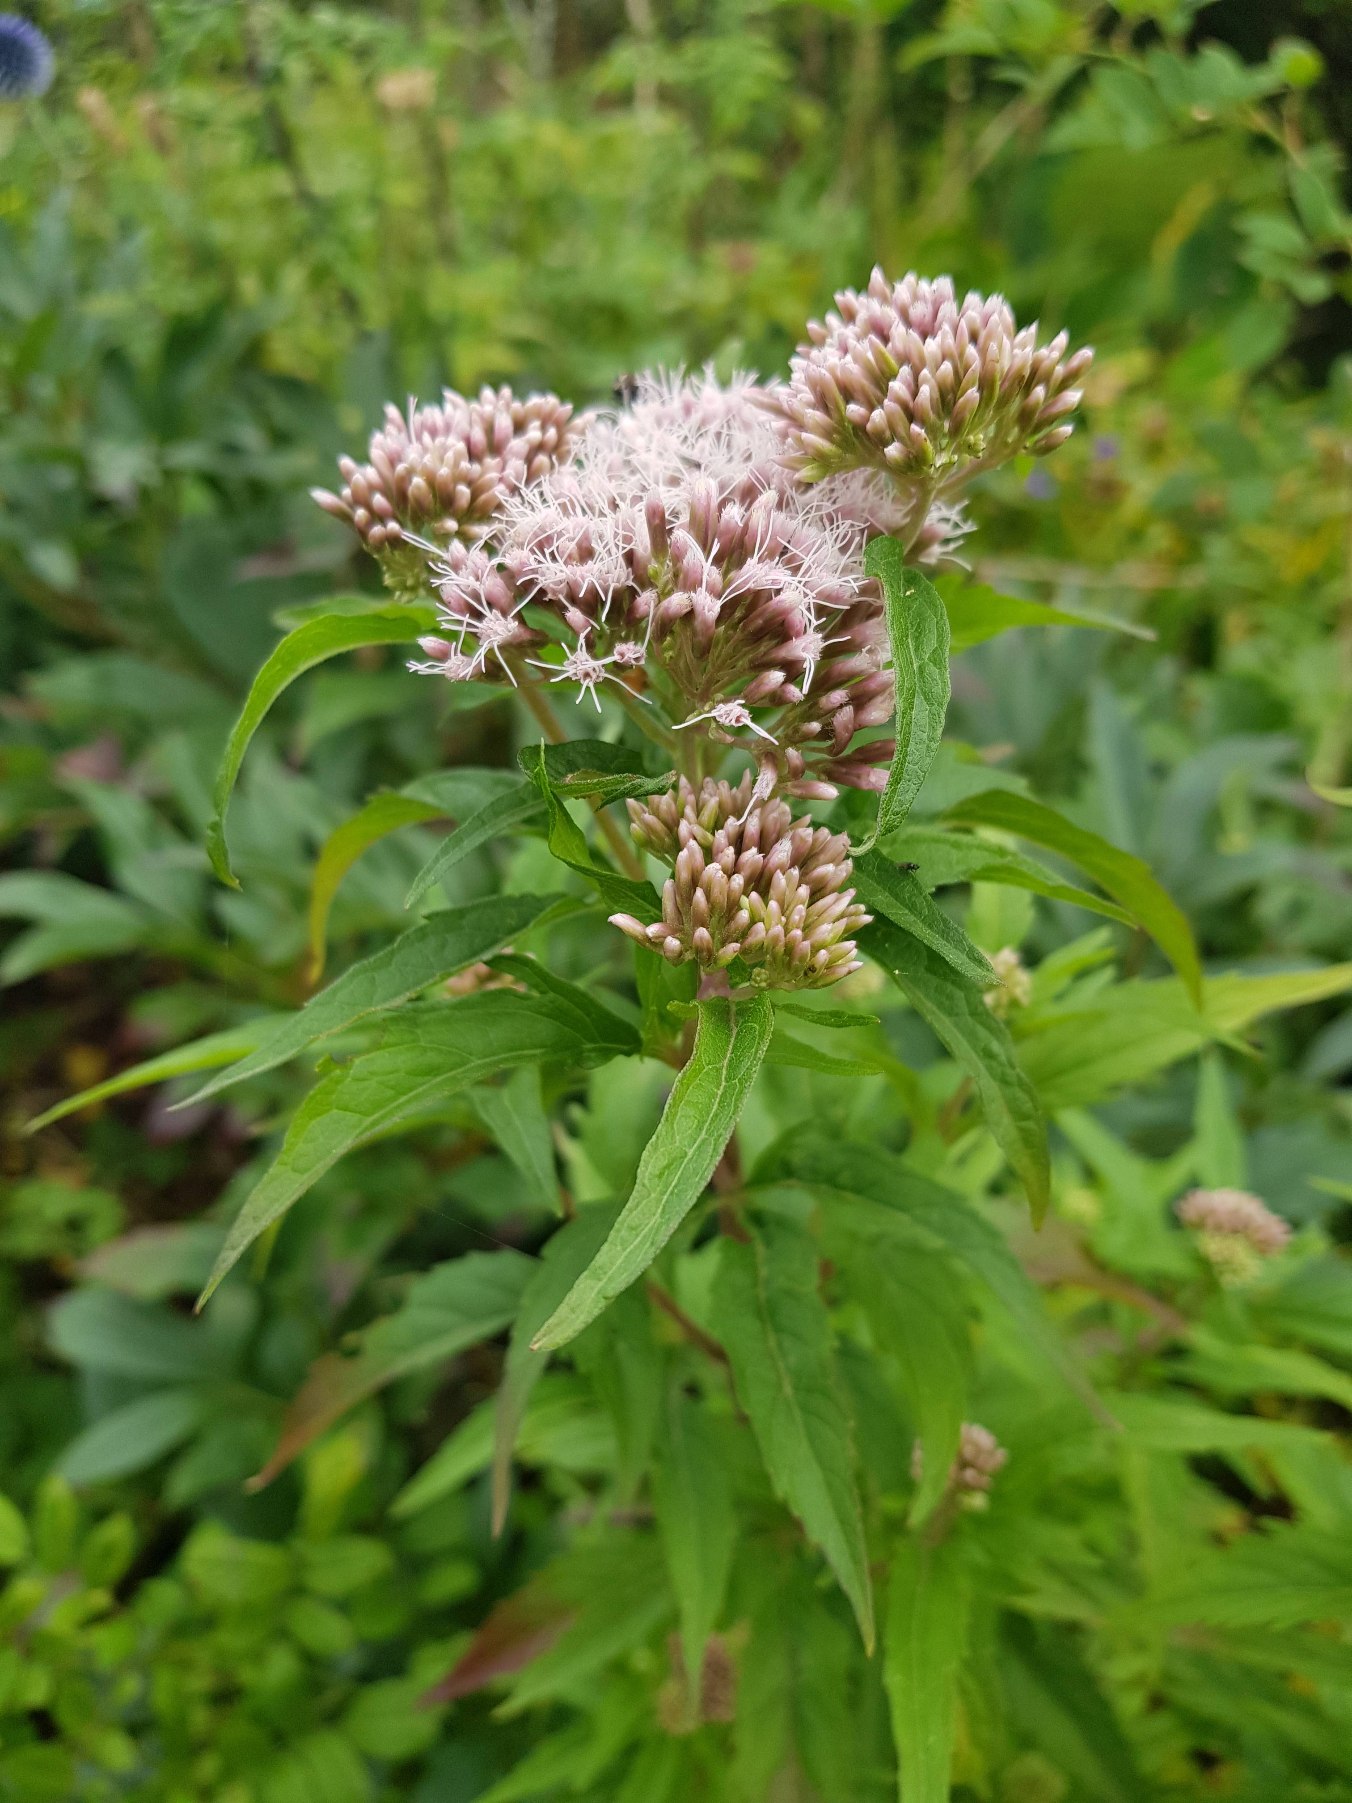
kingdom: Plantae
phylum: Tracheophyta
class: Magnoliopsida
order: Asterales
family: Asteraceae
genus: Eupatorium
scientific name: Eupatorium cannabinum
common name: Hjortetrøst
